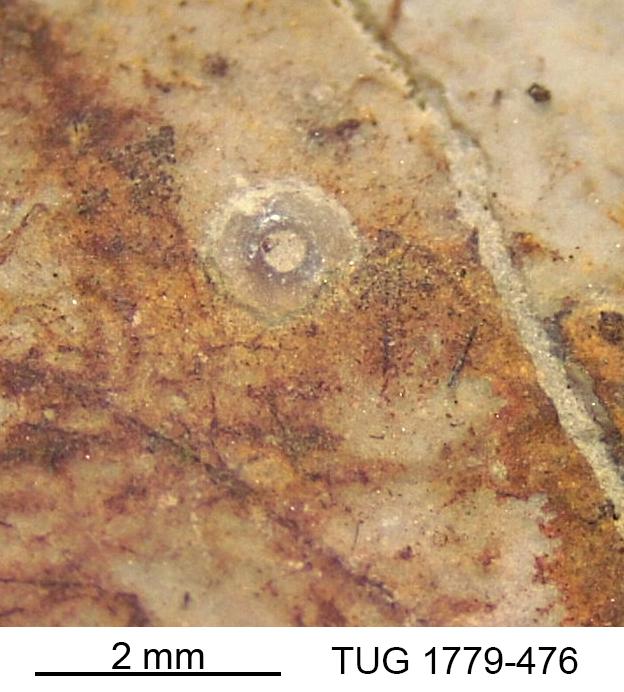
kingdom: Animalia
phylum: Bryozoa
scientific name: Bryozoa
